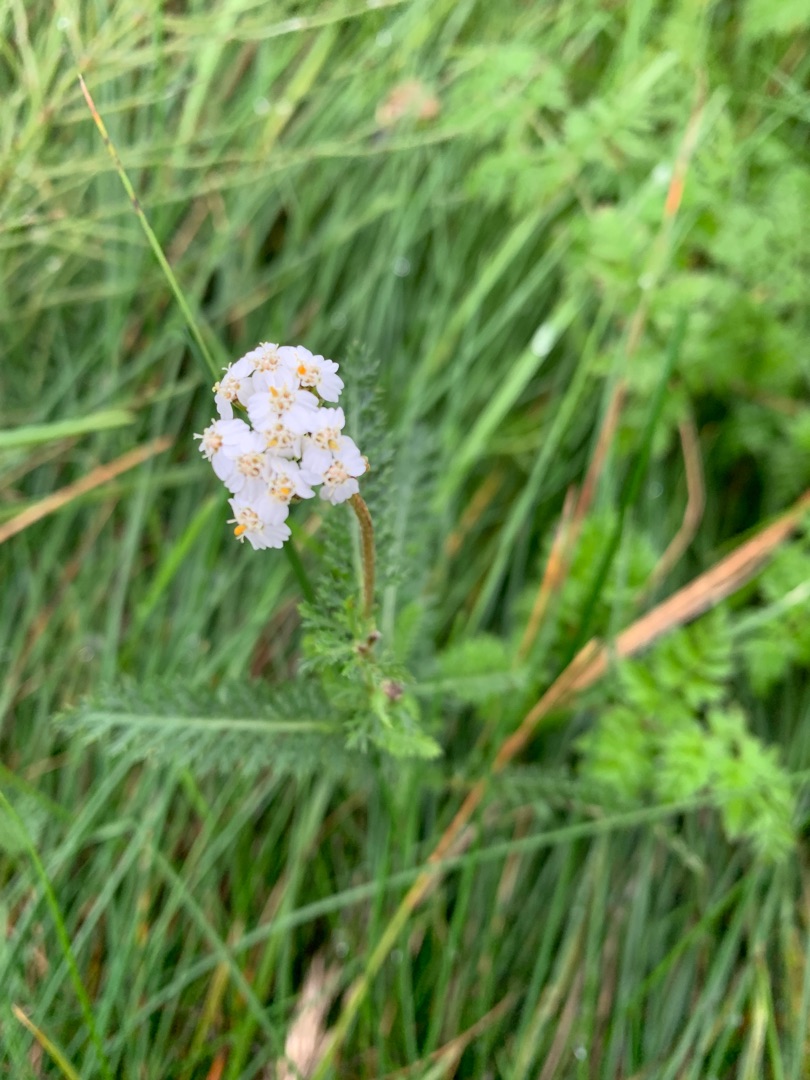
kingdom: Plantae
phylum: Tracheophyta
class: Magnoliopsida
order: Asterales
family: Asteraceae
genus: Achillea
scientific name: Achillea millefolium
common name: Almindelig røllike
